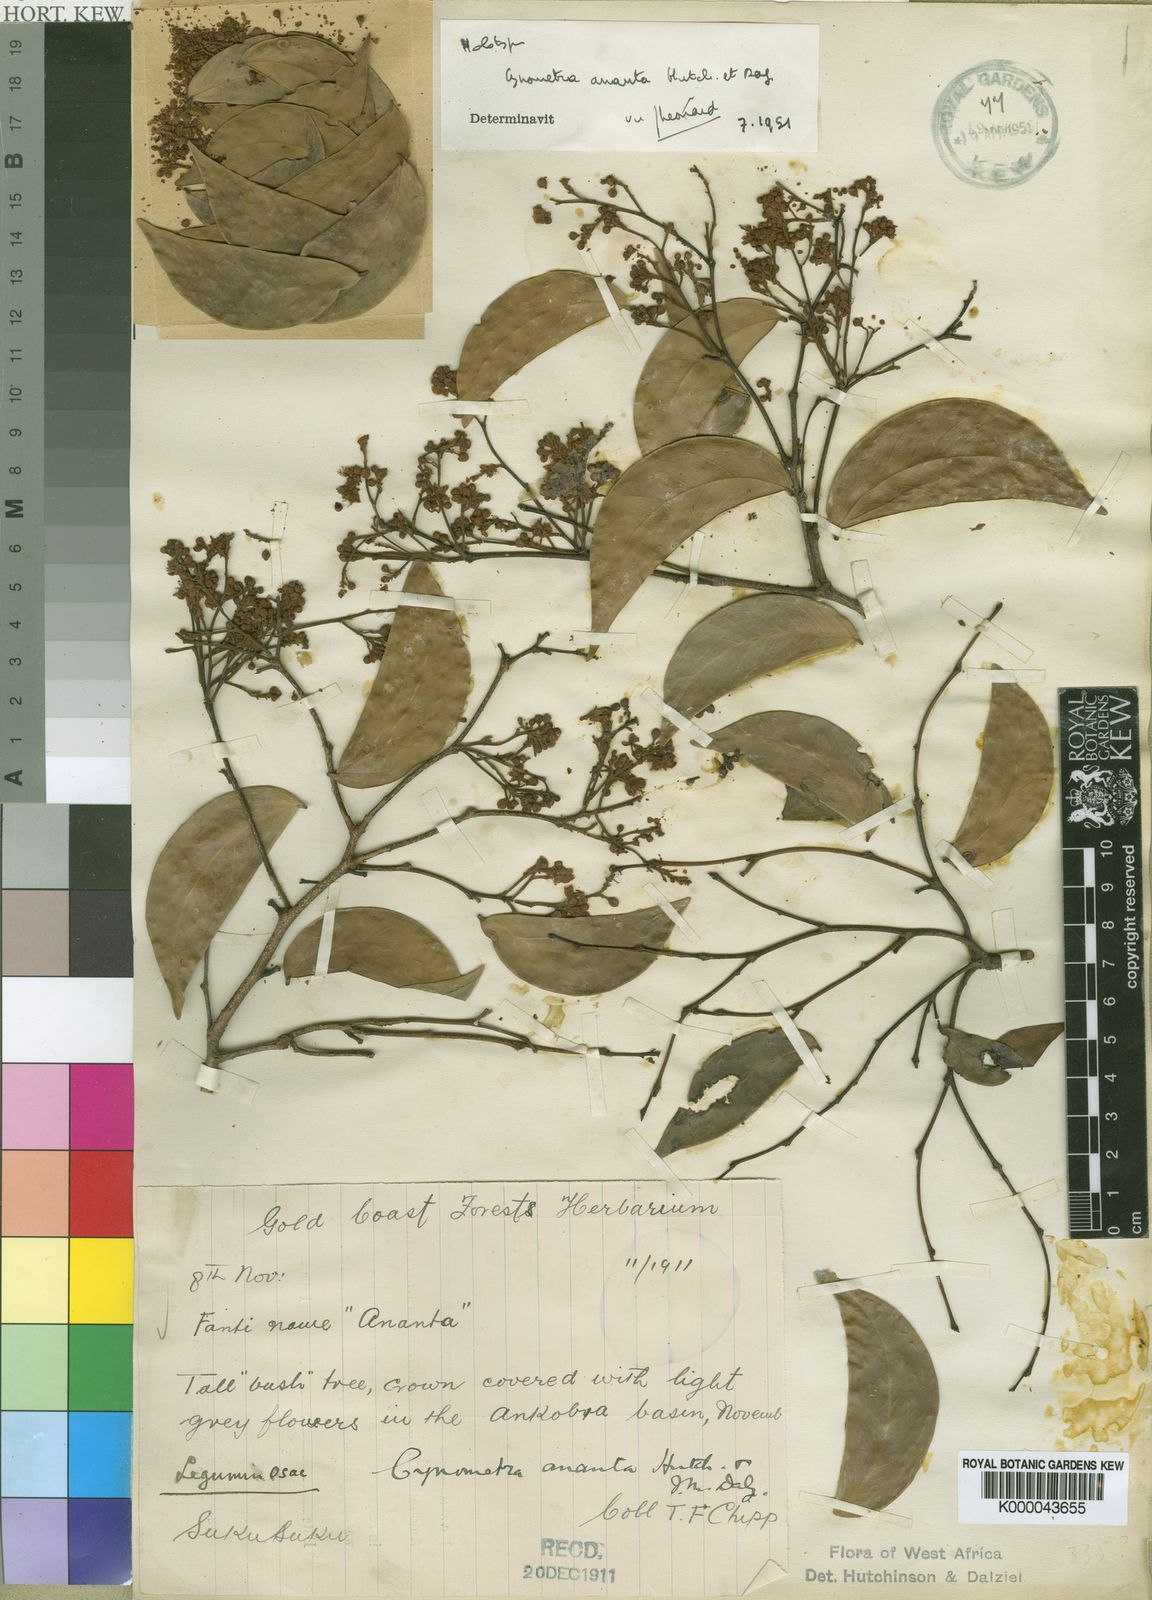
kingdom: Plantae
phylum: Tracheophyta
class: Magnoliopsida
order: Fabales
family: Fabaceae
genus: Cynometra
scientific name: Cynometra ananta
